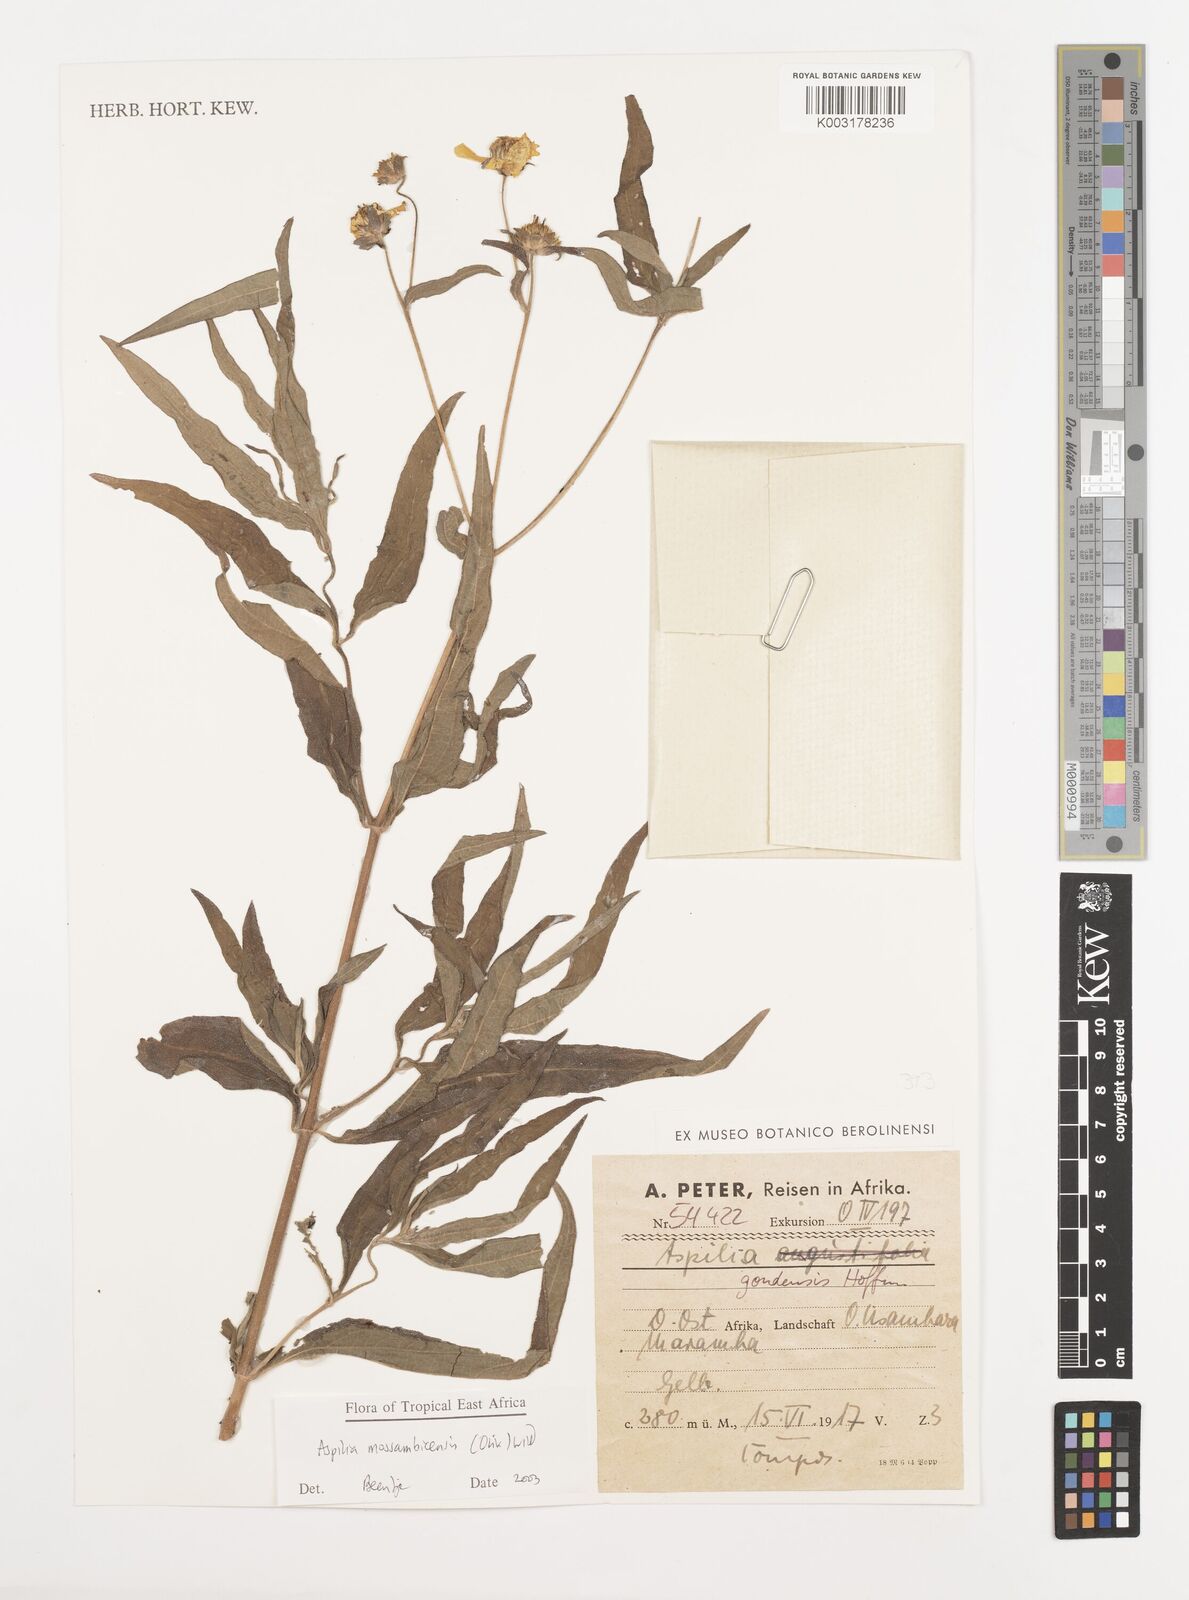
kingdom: Plantae
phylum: Tracheophyta
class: Magnoliopsida
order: Asterales
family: Asteraceae
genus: Aspilia
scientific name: Aspilia mossambicensis
